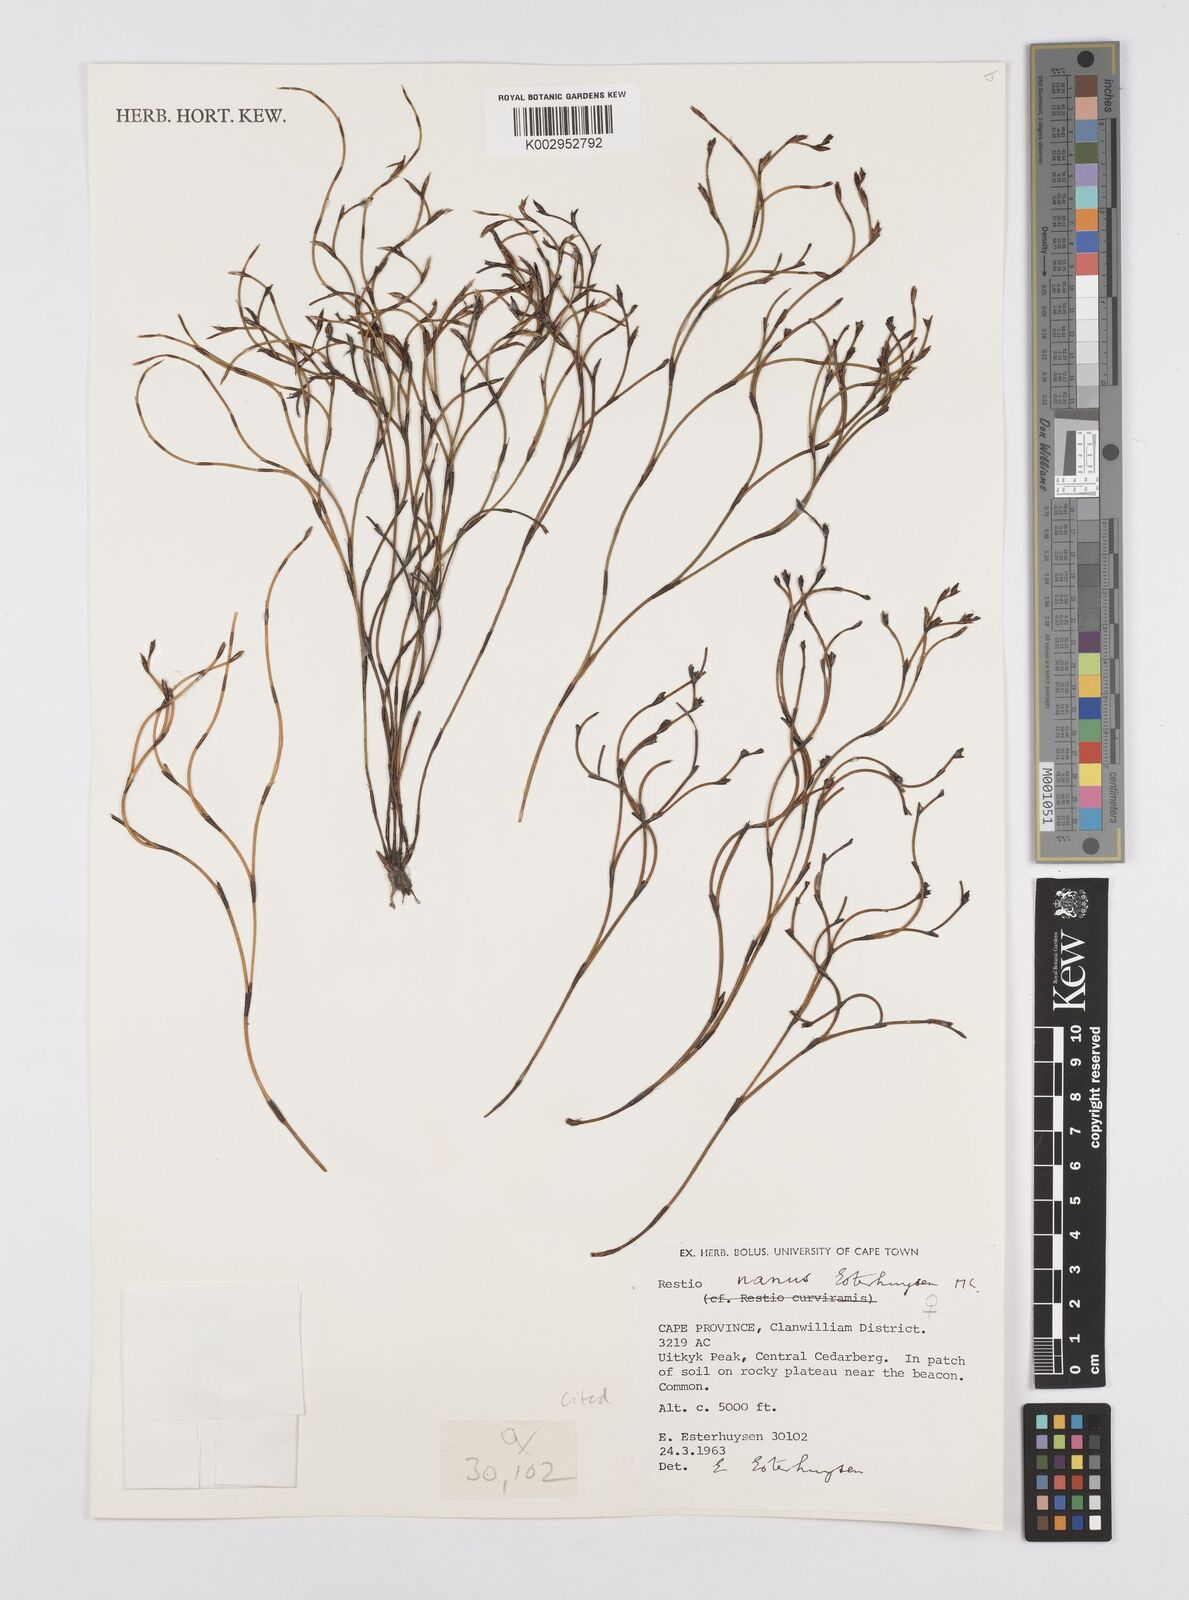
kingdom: Plantae
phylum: Tracheophyta
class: Liliopsida
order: Poales
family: Restionaceae
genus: Restio
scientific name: Restio nanus
